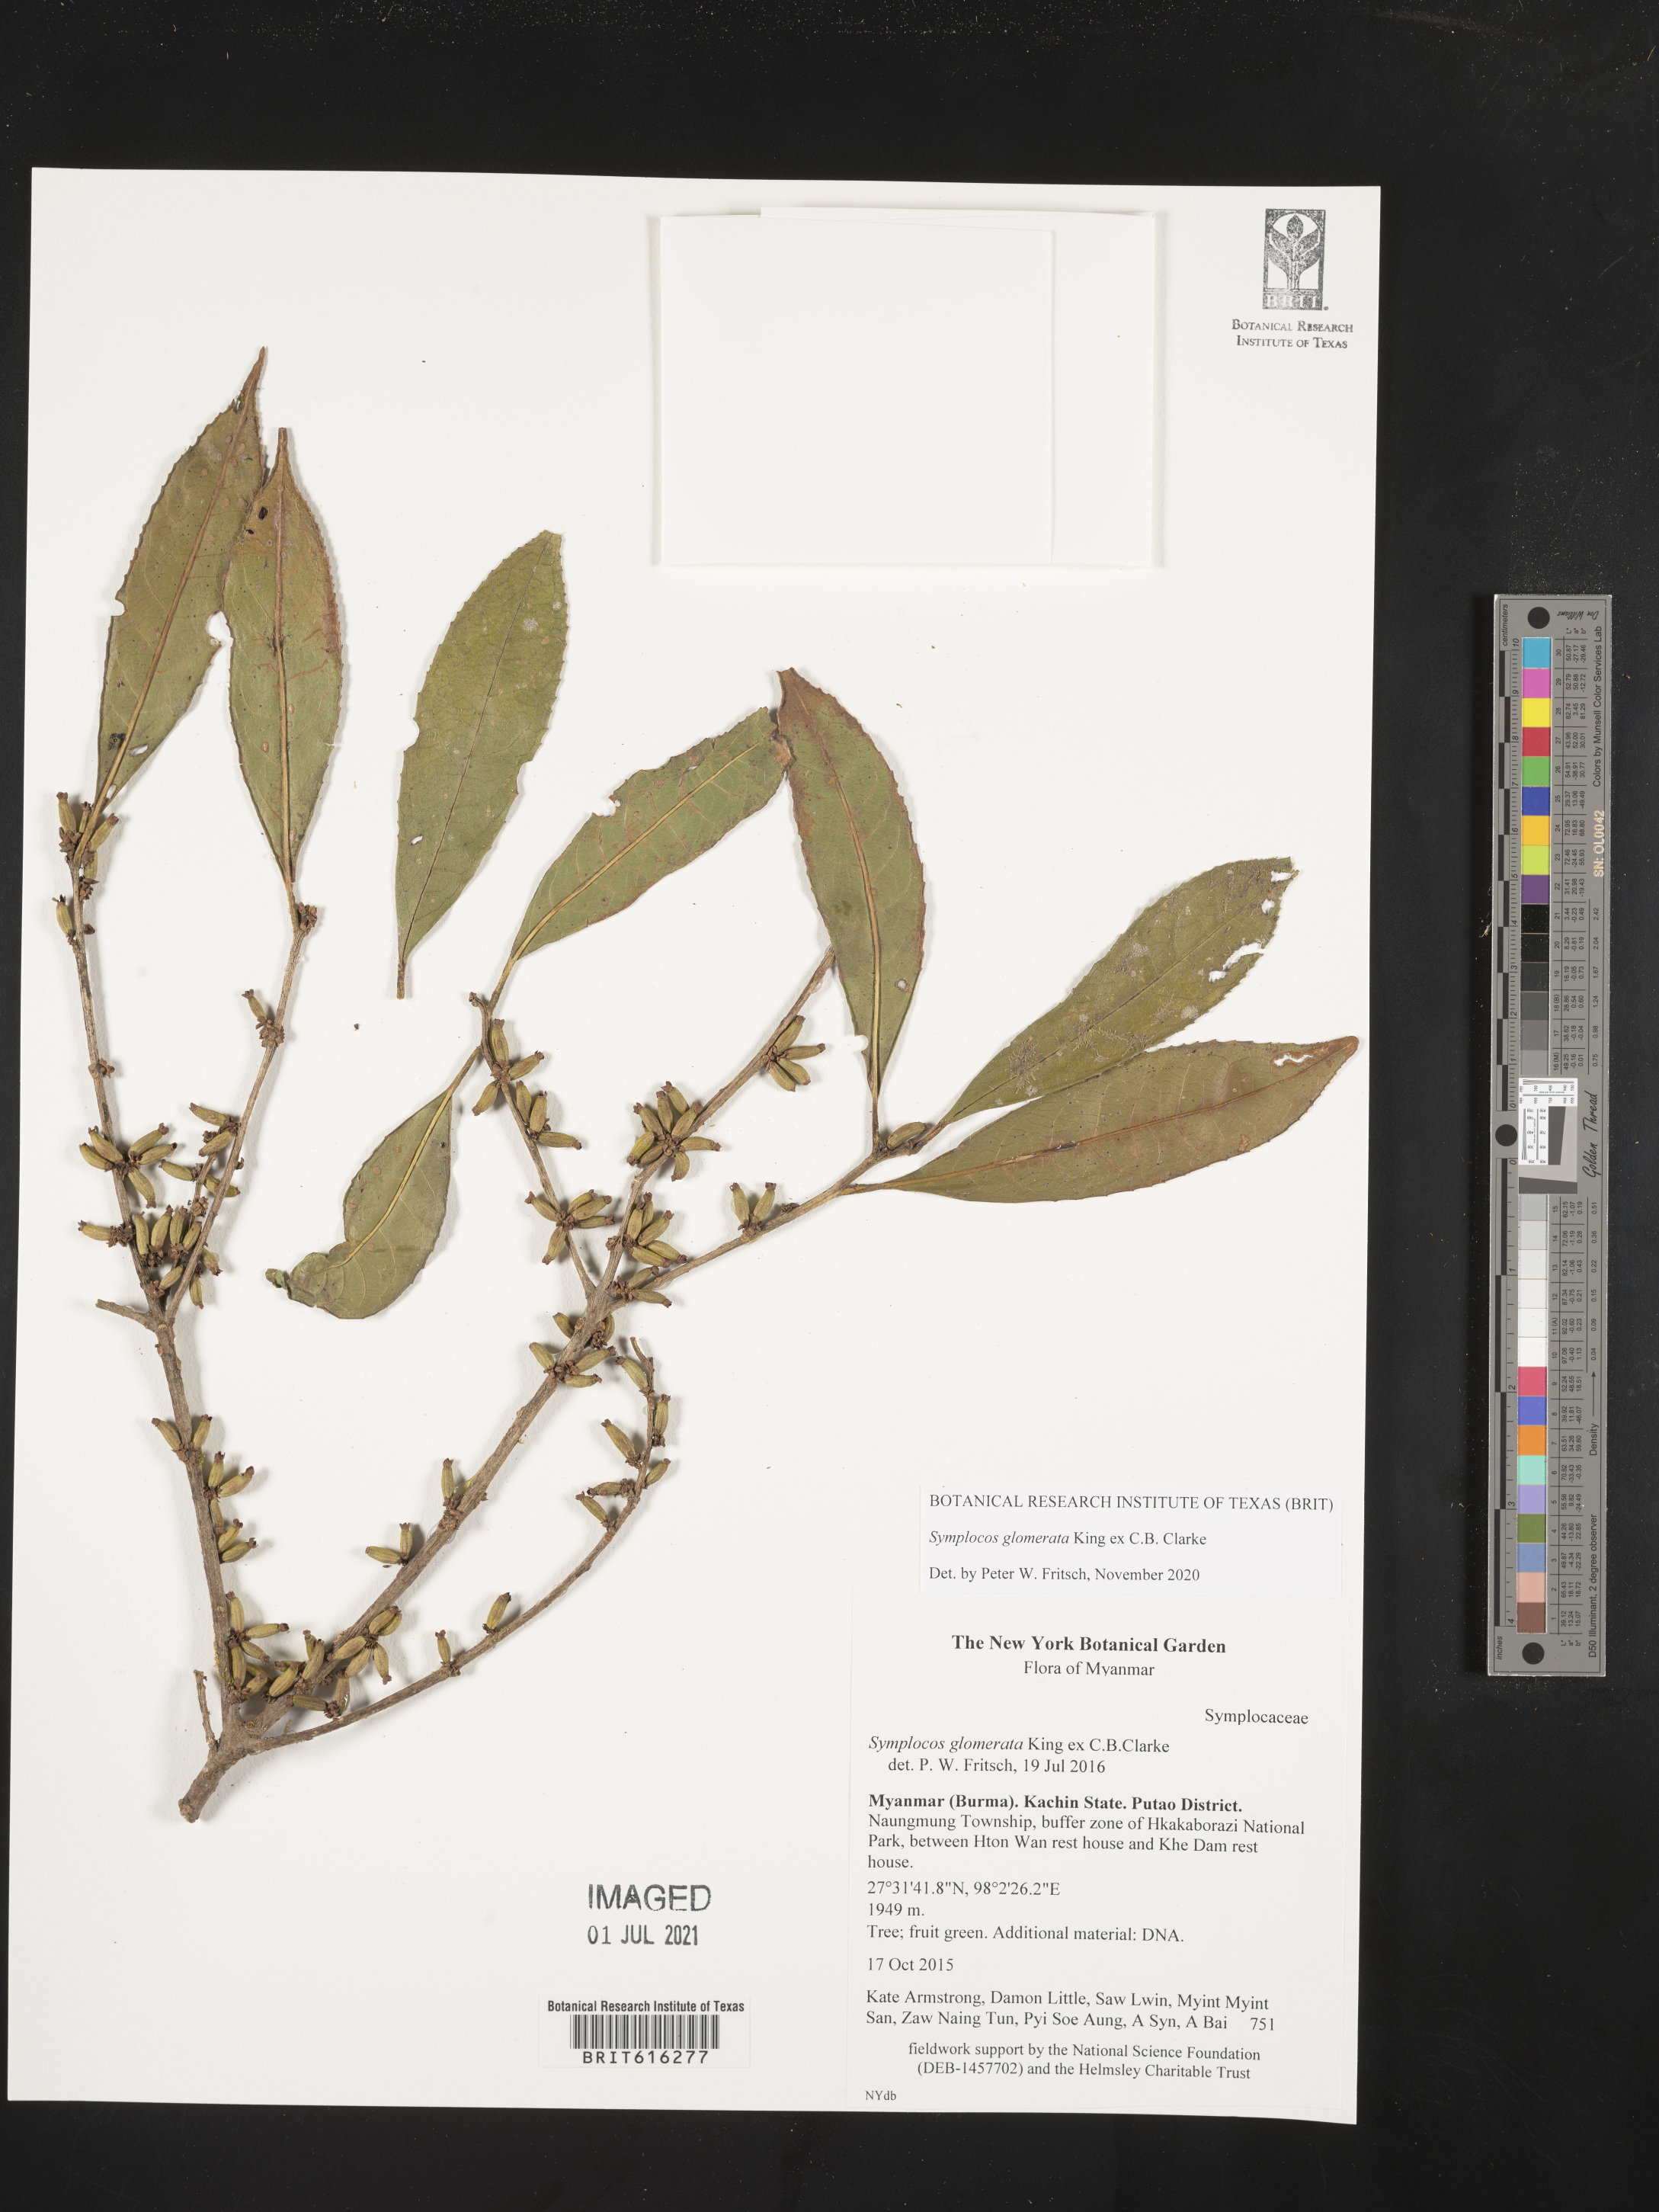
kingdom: Plantae
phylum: Tracheophyta
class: Magnoliopsida
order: Ericales
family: Symplocaceae
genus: Symplocos
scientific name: Symplocos glomerata
